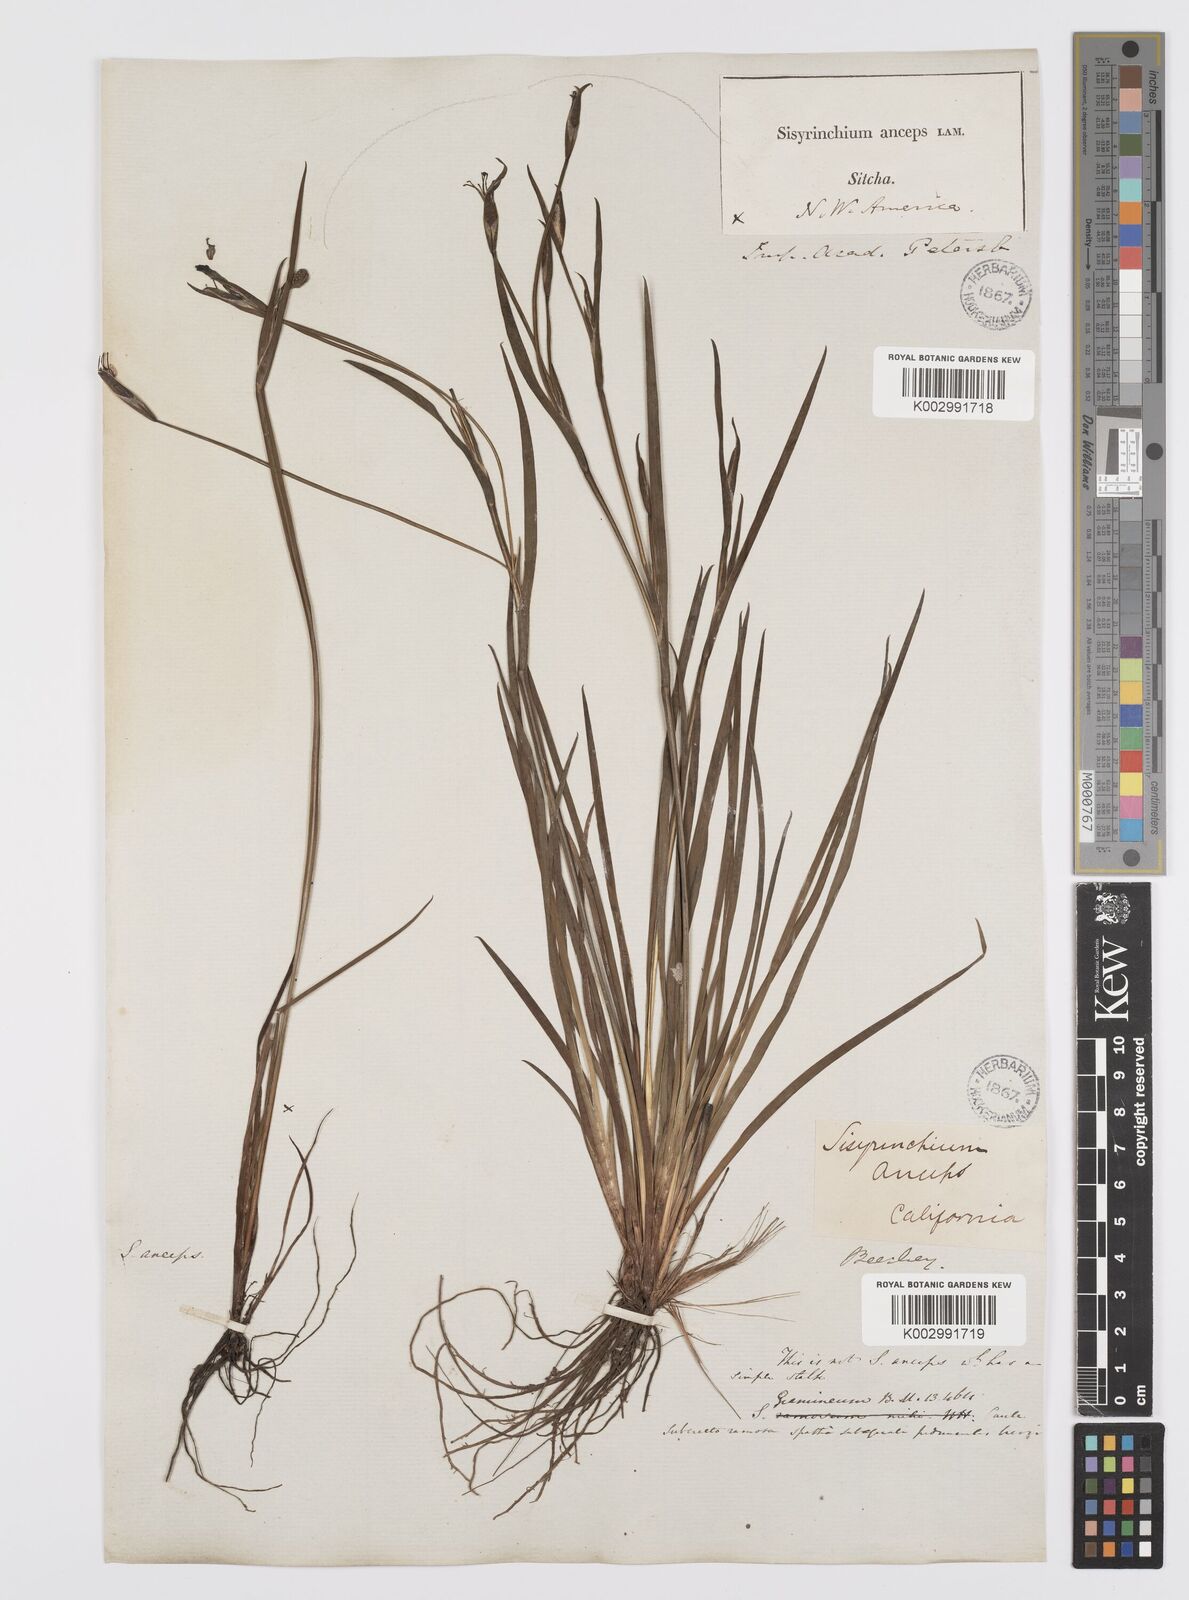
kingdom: Plantae
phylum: Tracheophyta
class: Liliopsida
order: Asparagales
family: Iridaceae
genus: Sisyrinchium
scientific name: Sisyrinchium bellum
